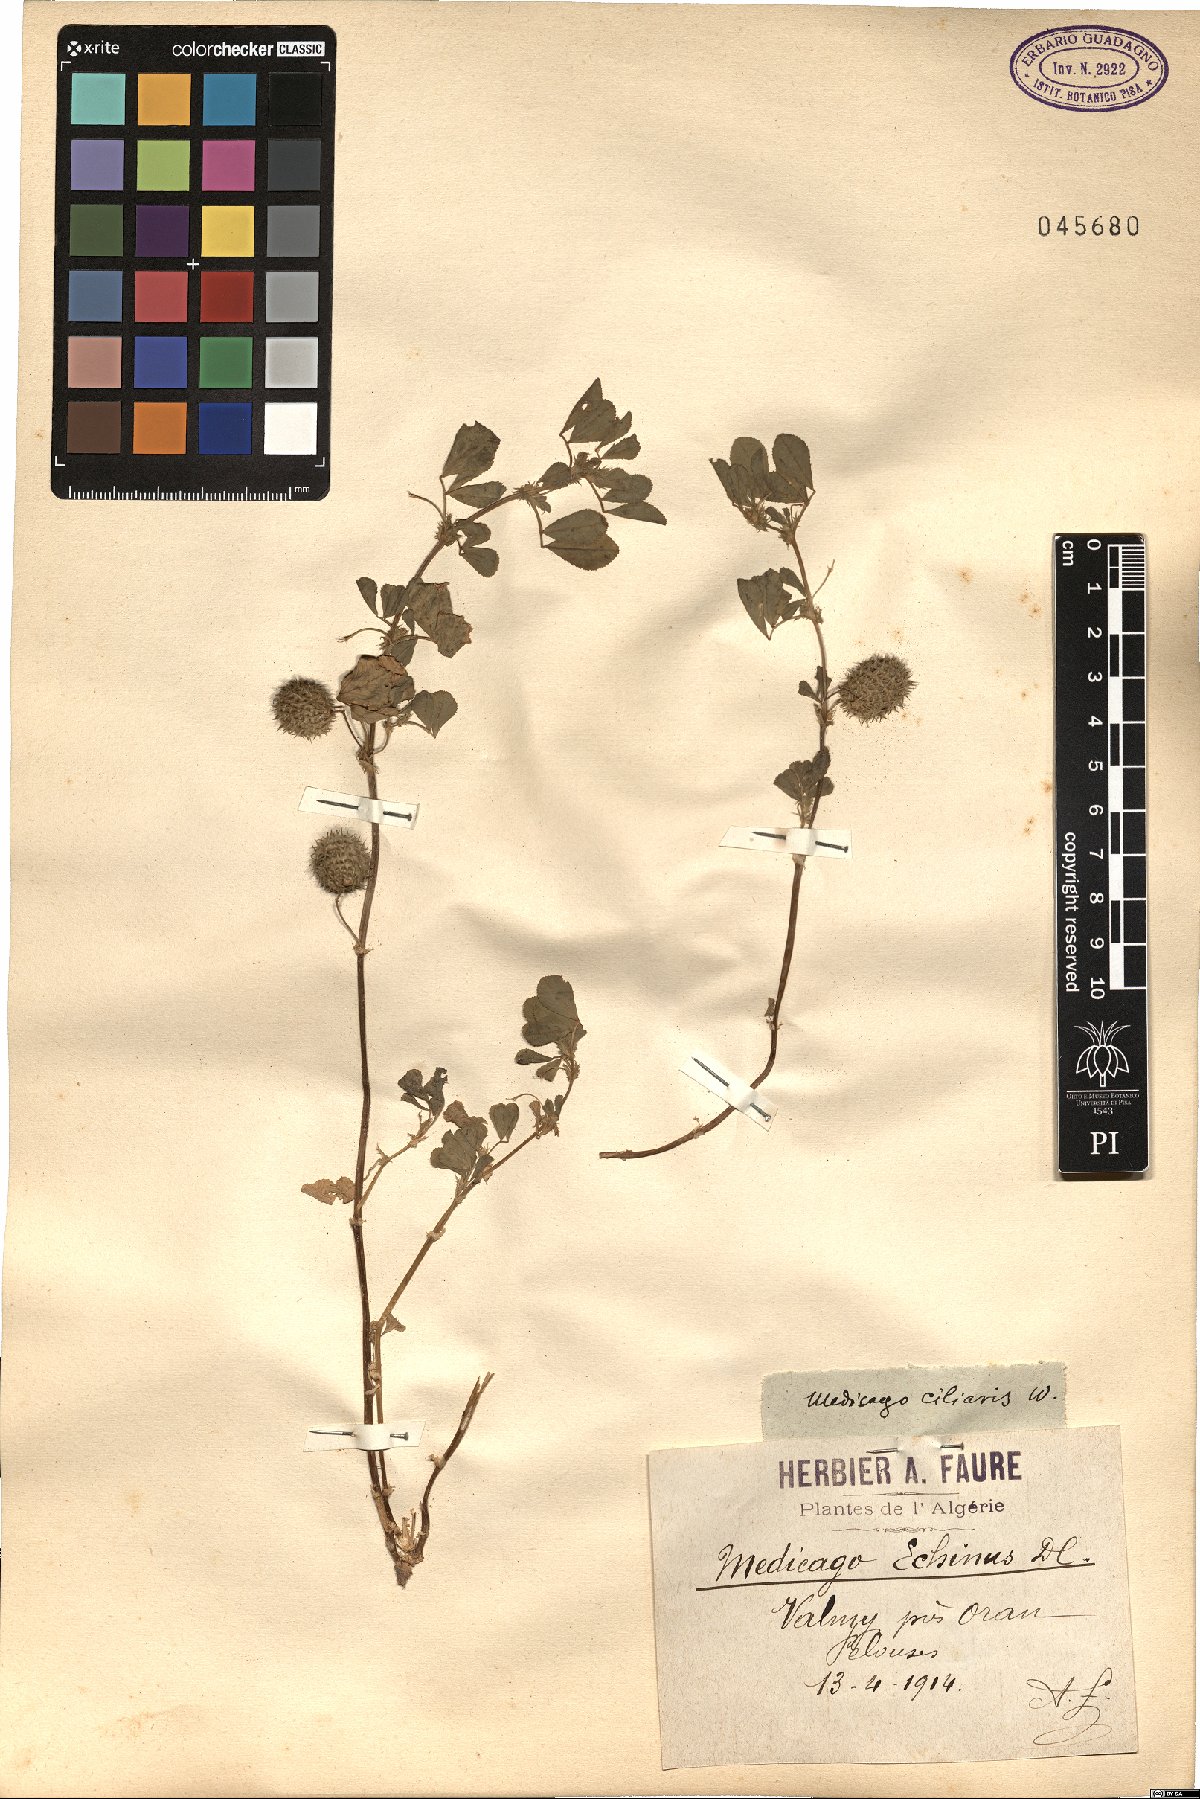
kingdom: Plantae
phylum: Tracheophyta
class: Magnoliopsida
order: Fabales
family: Fabaceae
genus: Medicago
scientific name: Medicago intertexta
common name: Hedgehog medick
